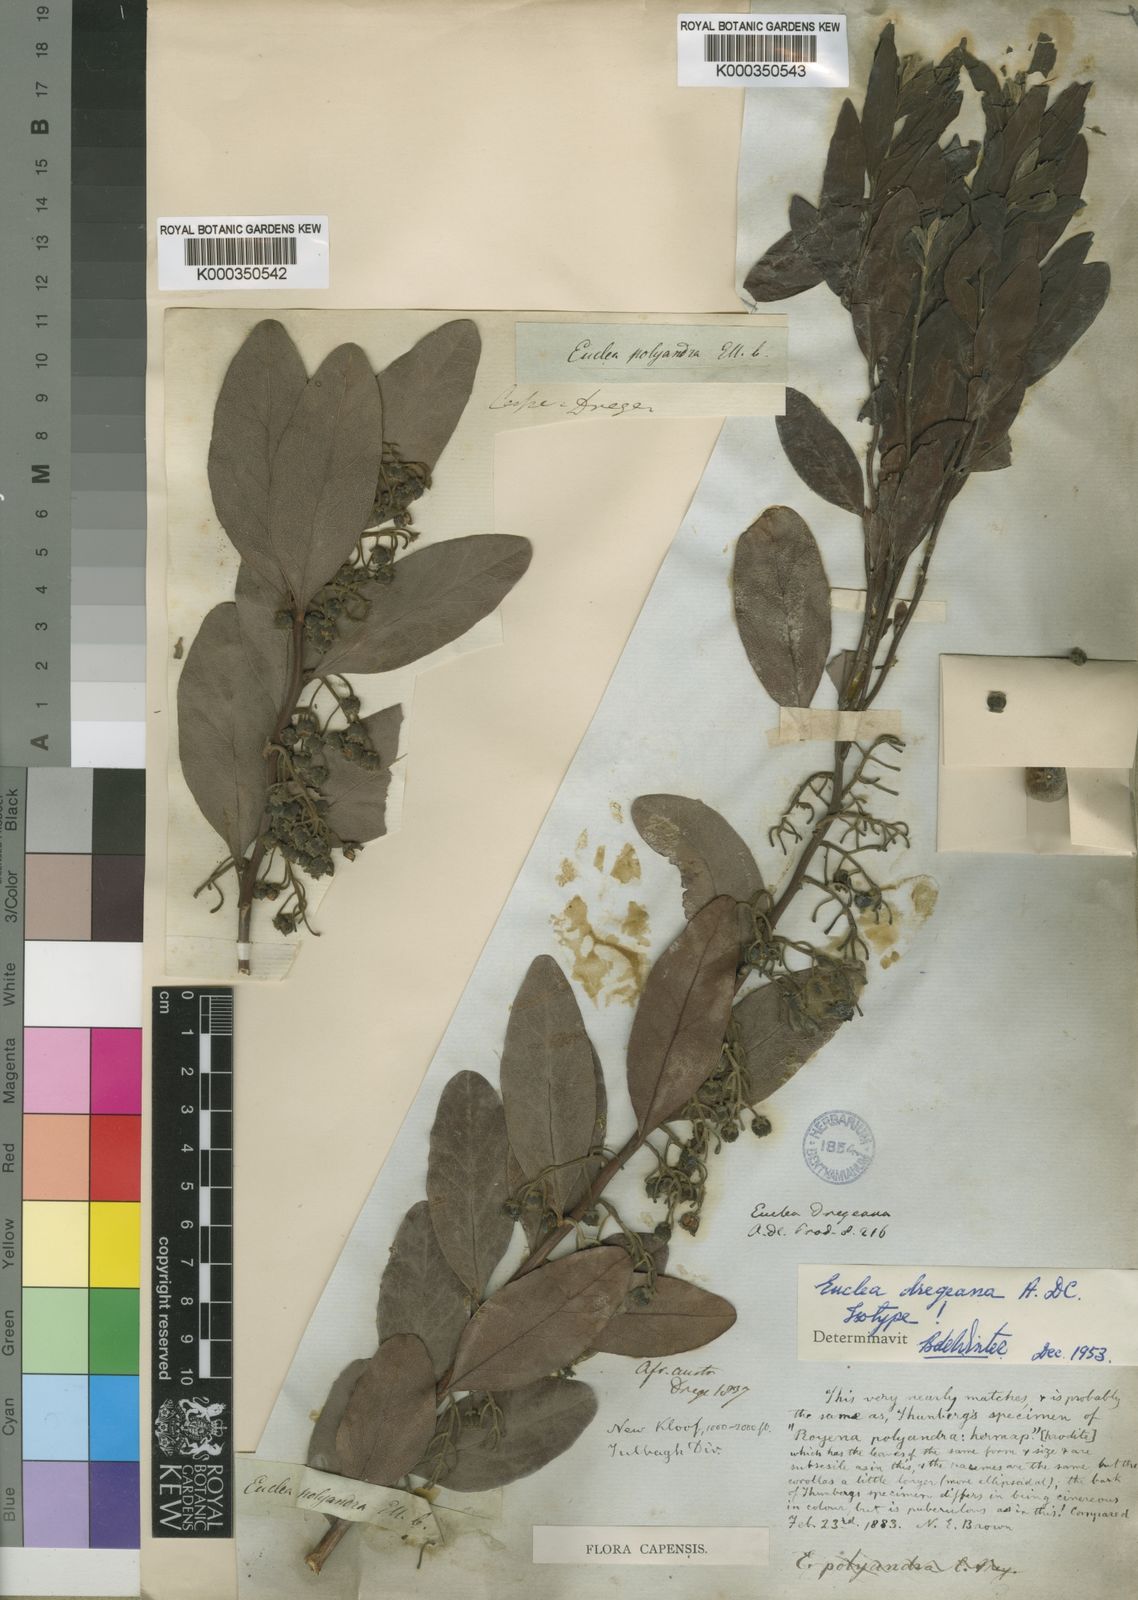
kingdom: Plantae
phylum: Tracheophyta
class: Magnoliopsida
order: Ericales
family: Ebenaceae
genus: Euclea
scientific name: Euclea
